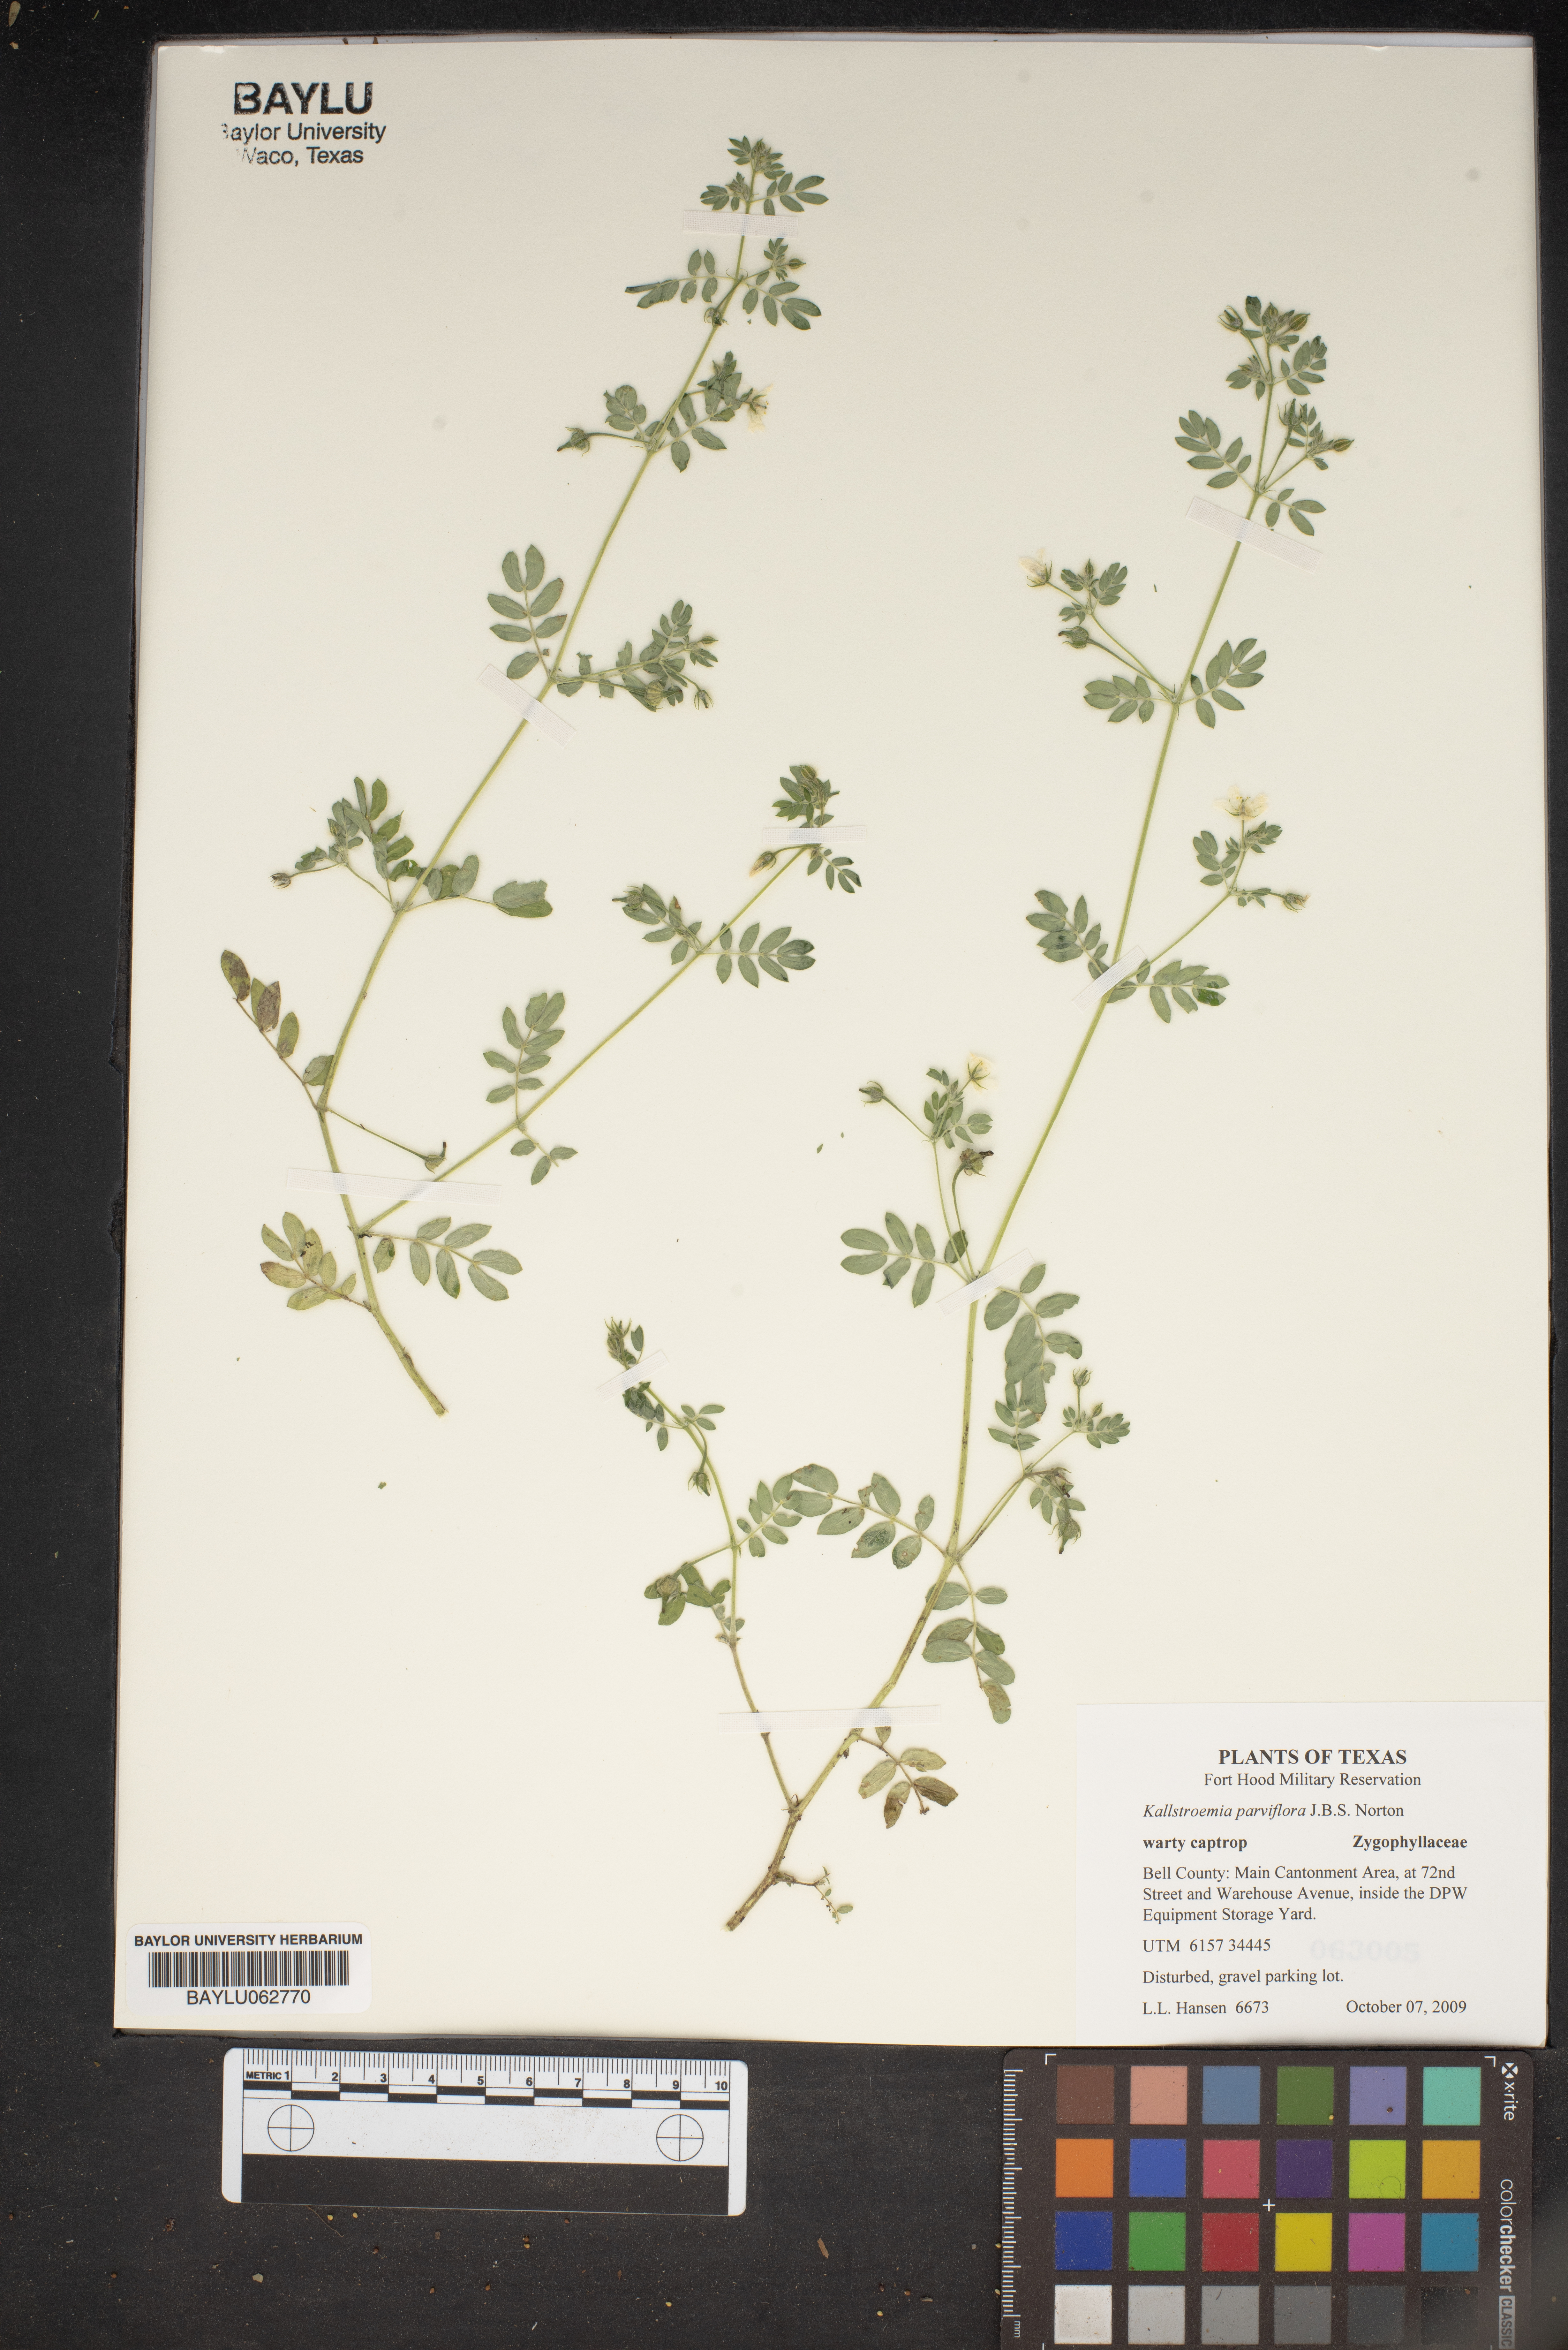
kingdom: Plantae
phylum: Tracheophyta
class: Magnoliopsida
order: Zygophyllales
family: Zygophyllaceae
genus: Kallstroemia
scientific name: Kallstroemia parviflora
